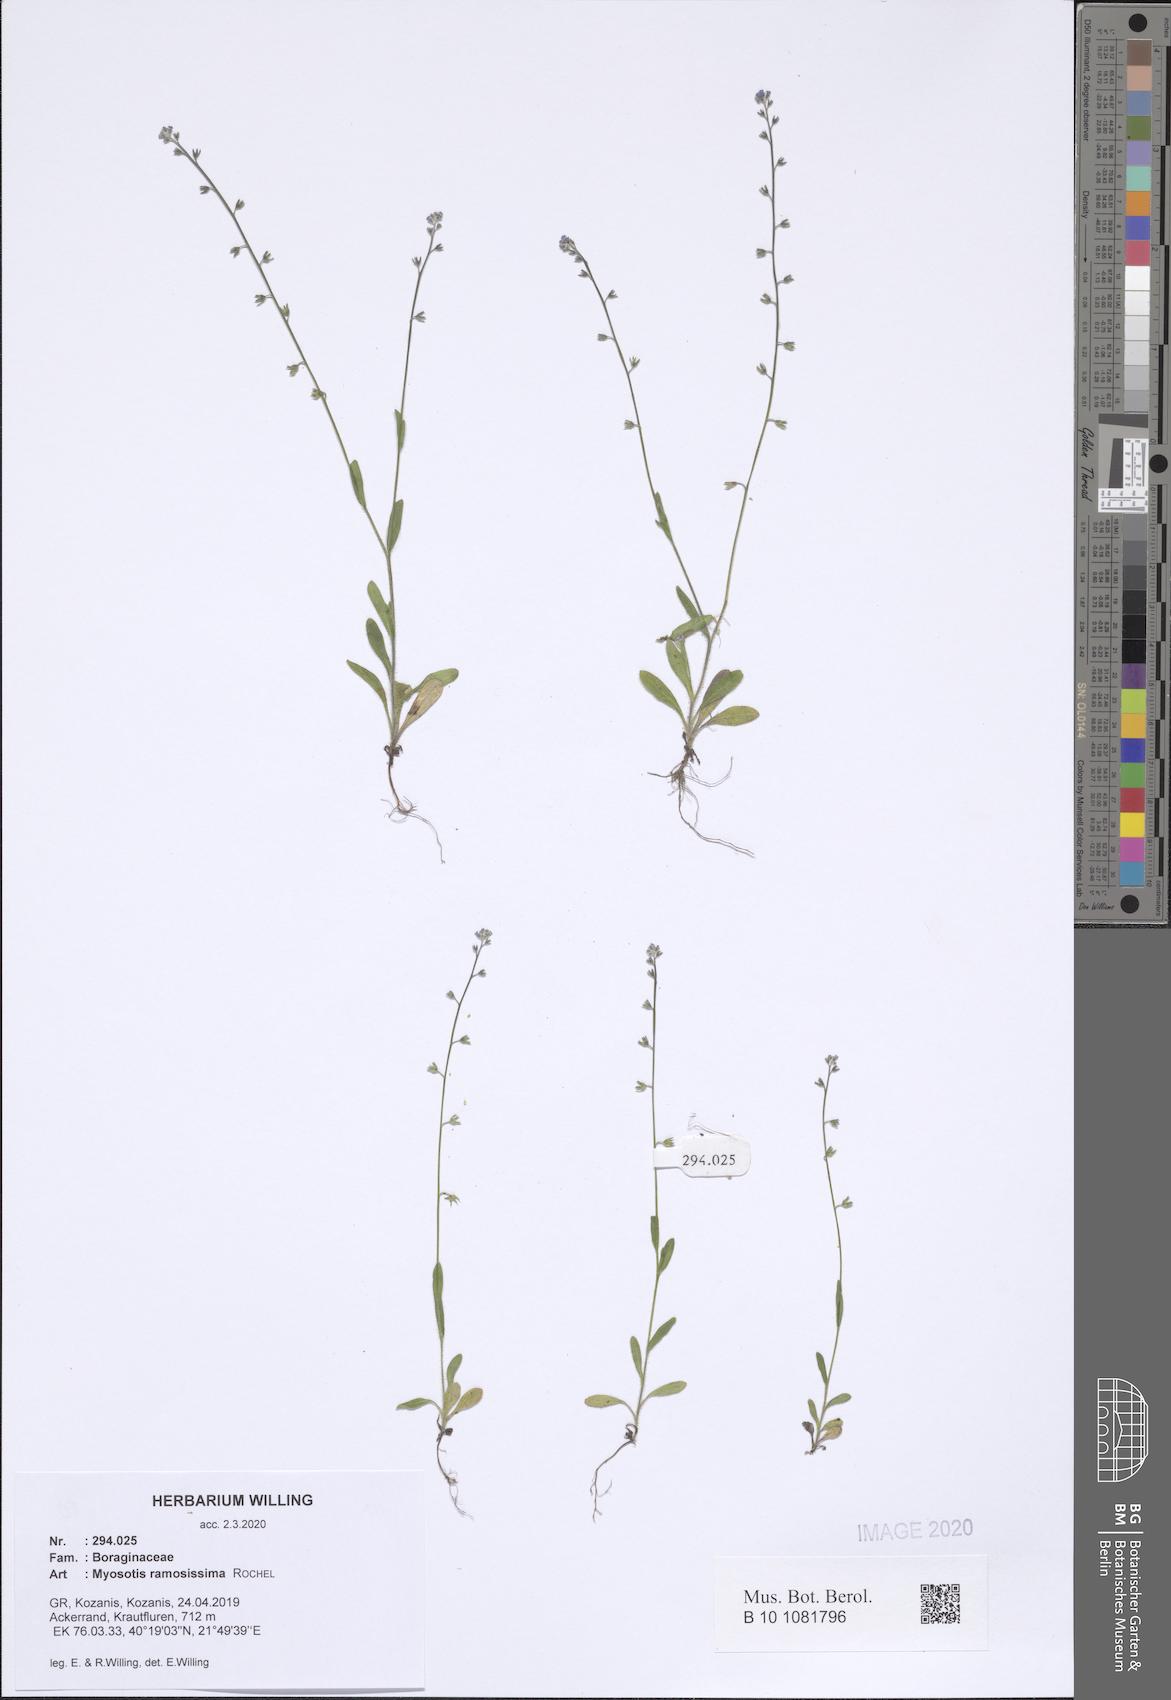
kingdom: Plantae
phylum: Tracheophyta
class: Magnoliopsida
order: Boraginales
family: Boraginaceae
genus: Myosotis
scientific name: Myosotis ramosissima
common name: Early forget-me-not
